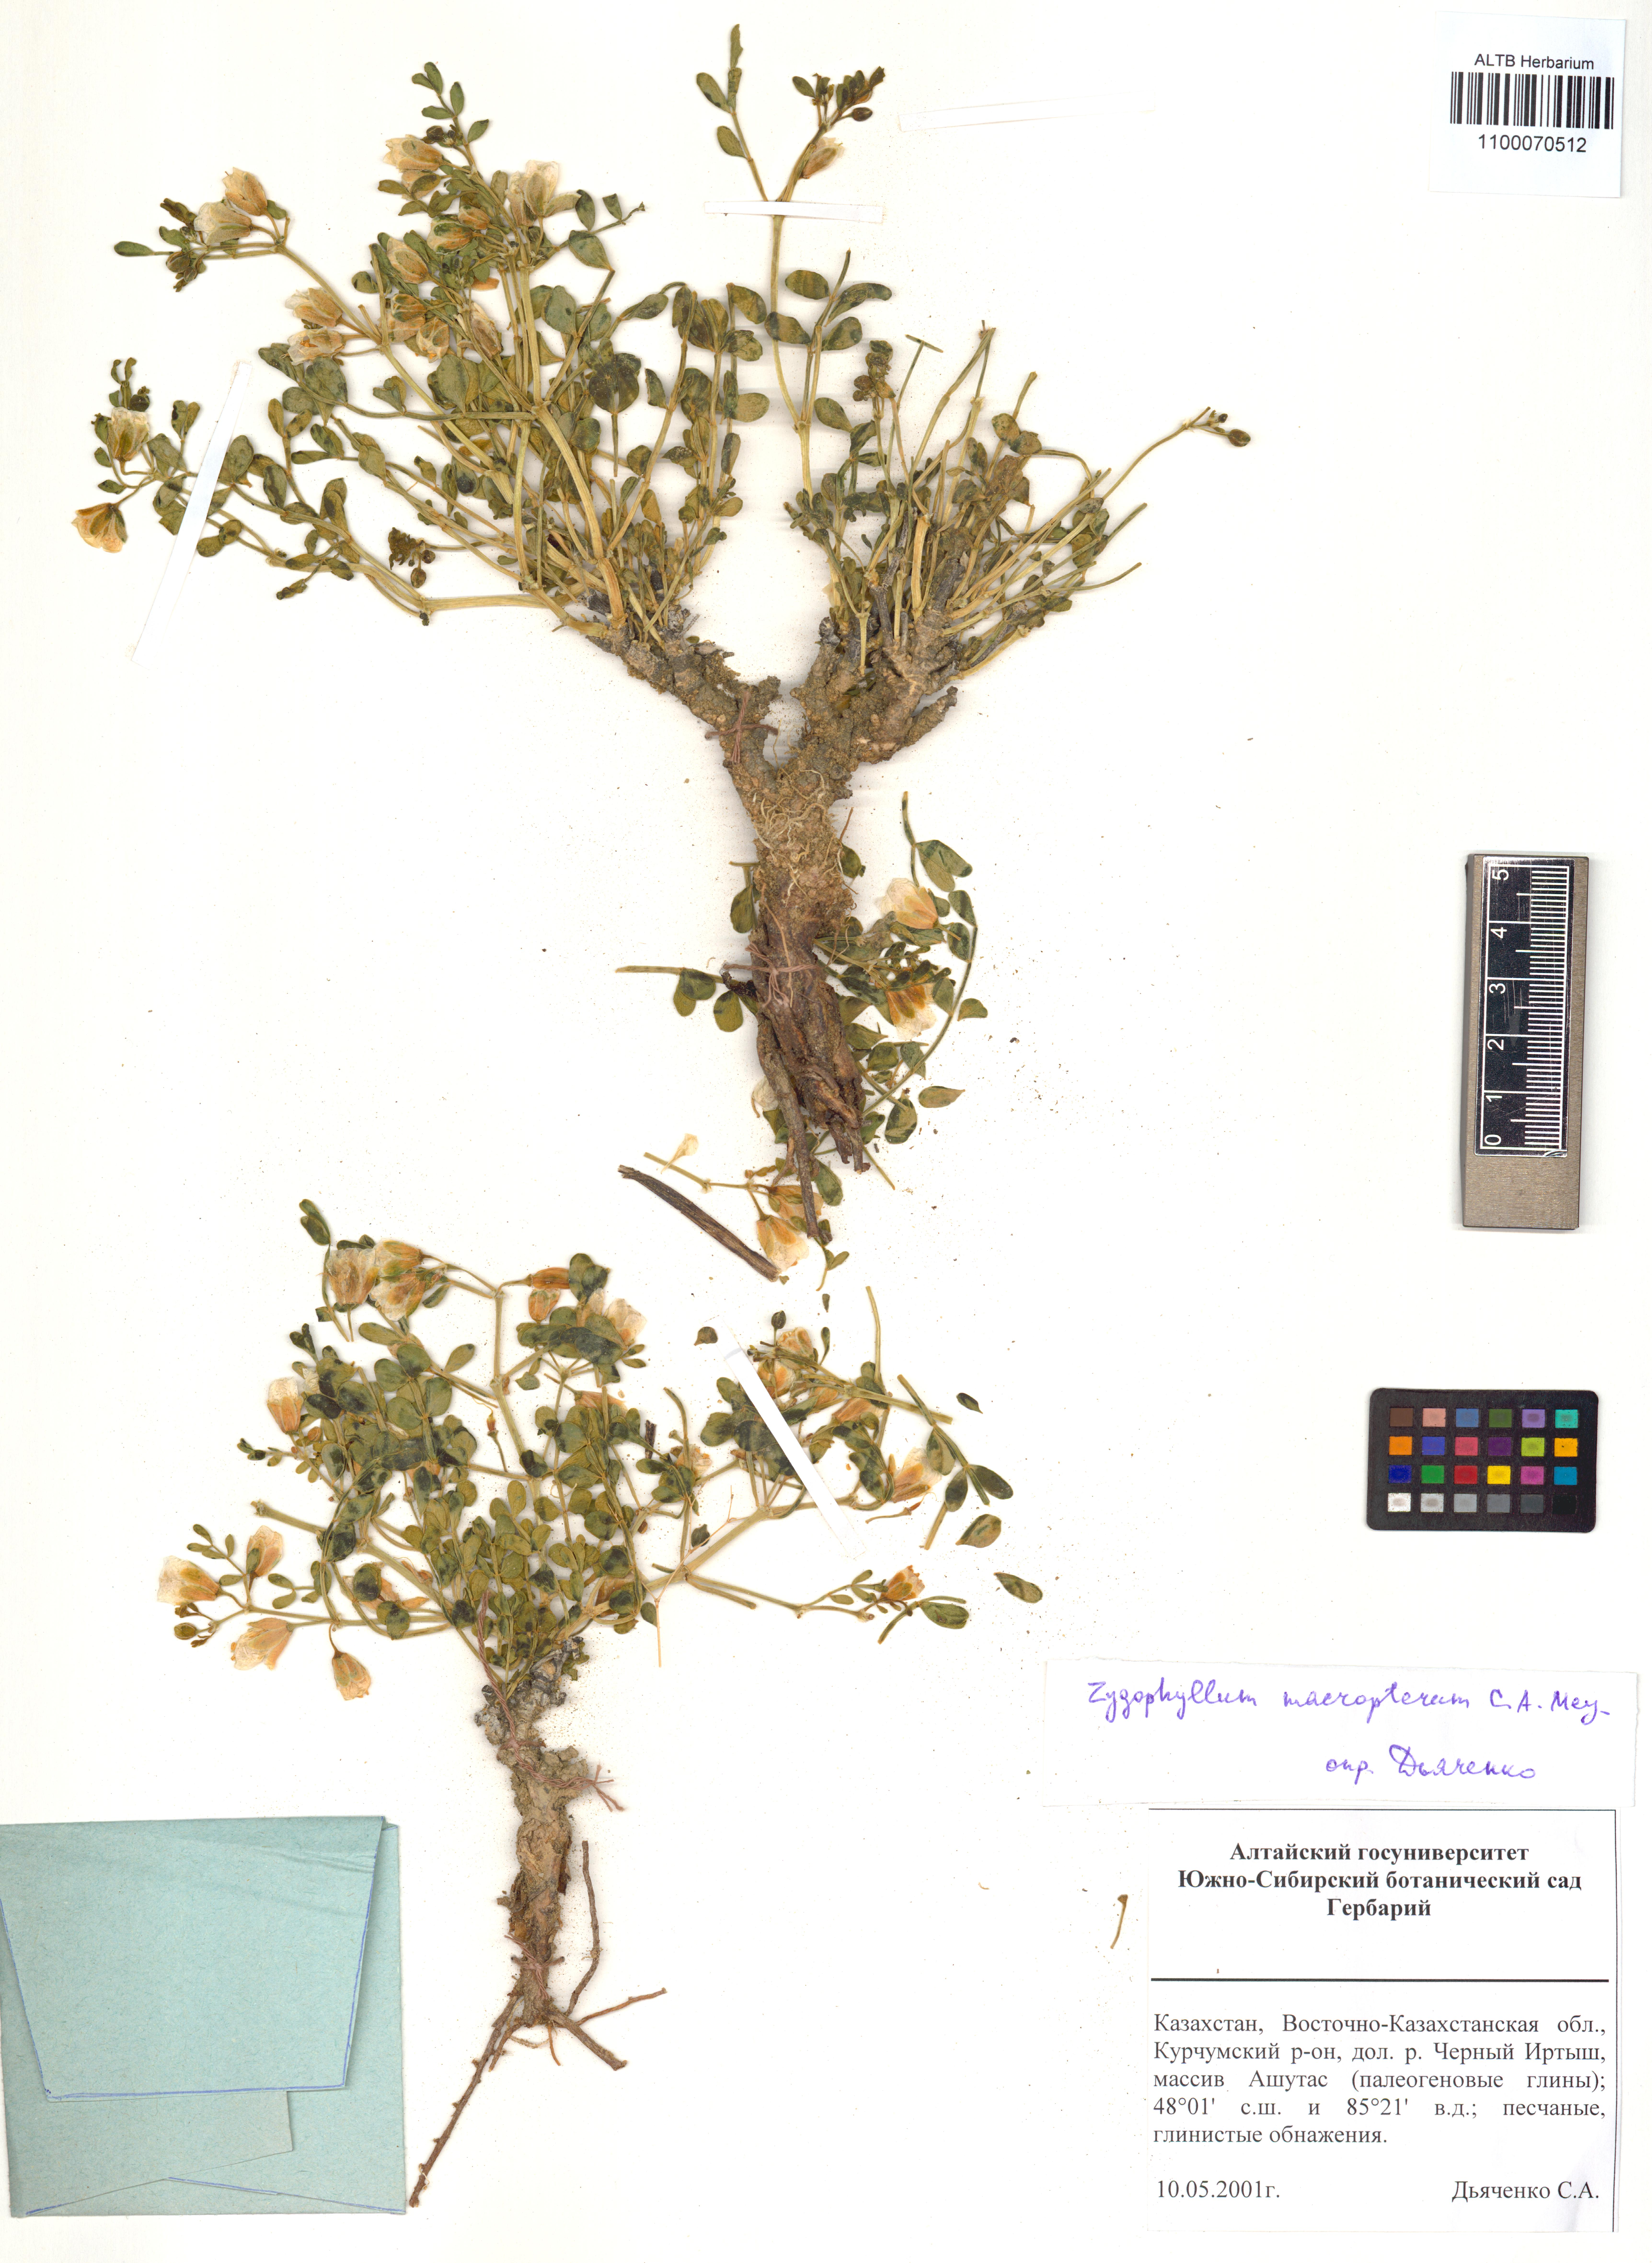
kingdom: Plantae
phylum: Tracheophyta
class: Magnoliopsida
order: Zygophyllales
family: Zygophyllaceae
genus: Zygophyllum
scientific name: Zygophyllum pinnatum
